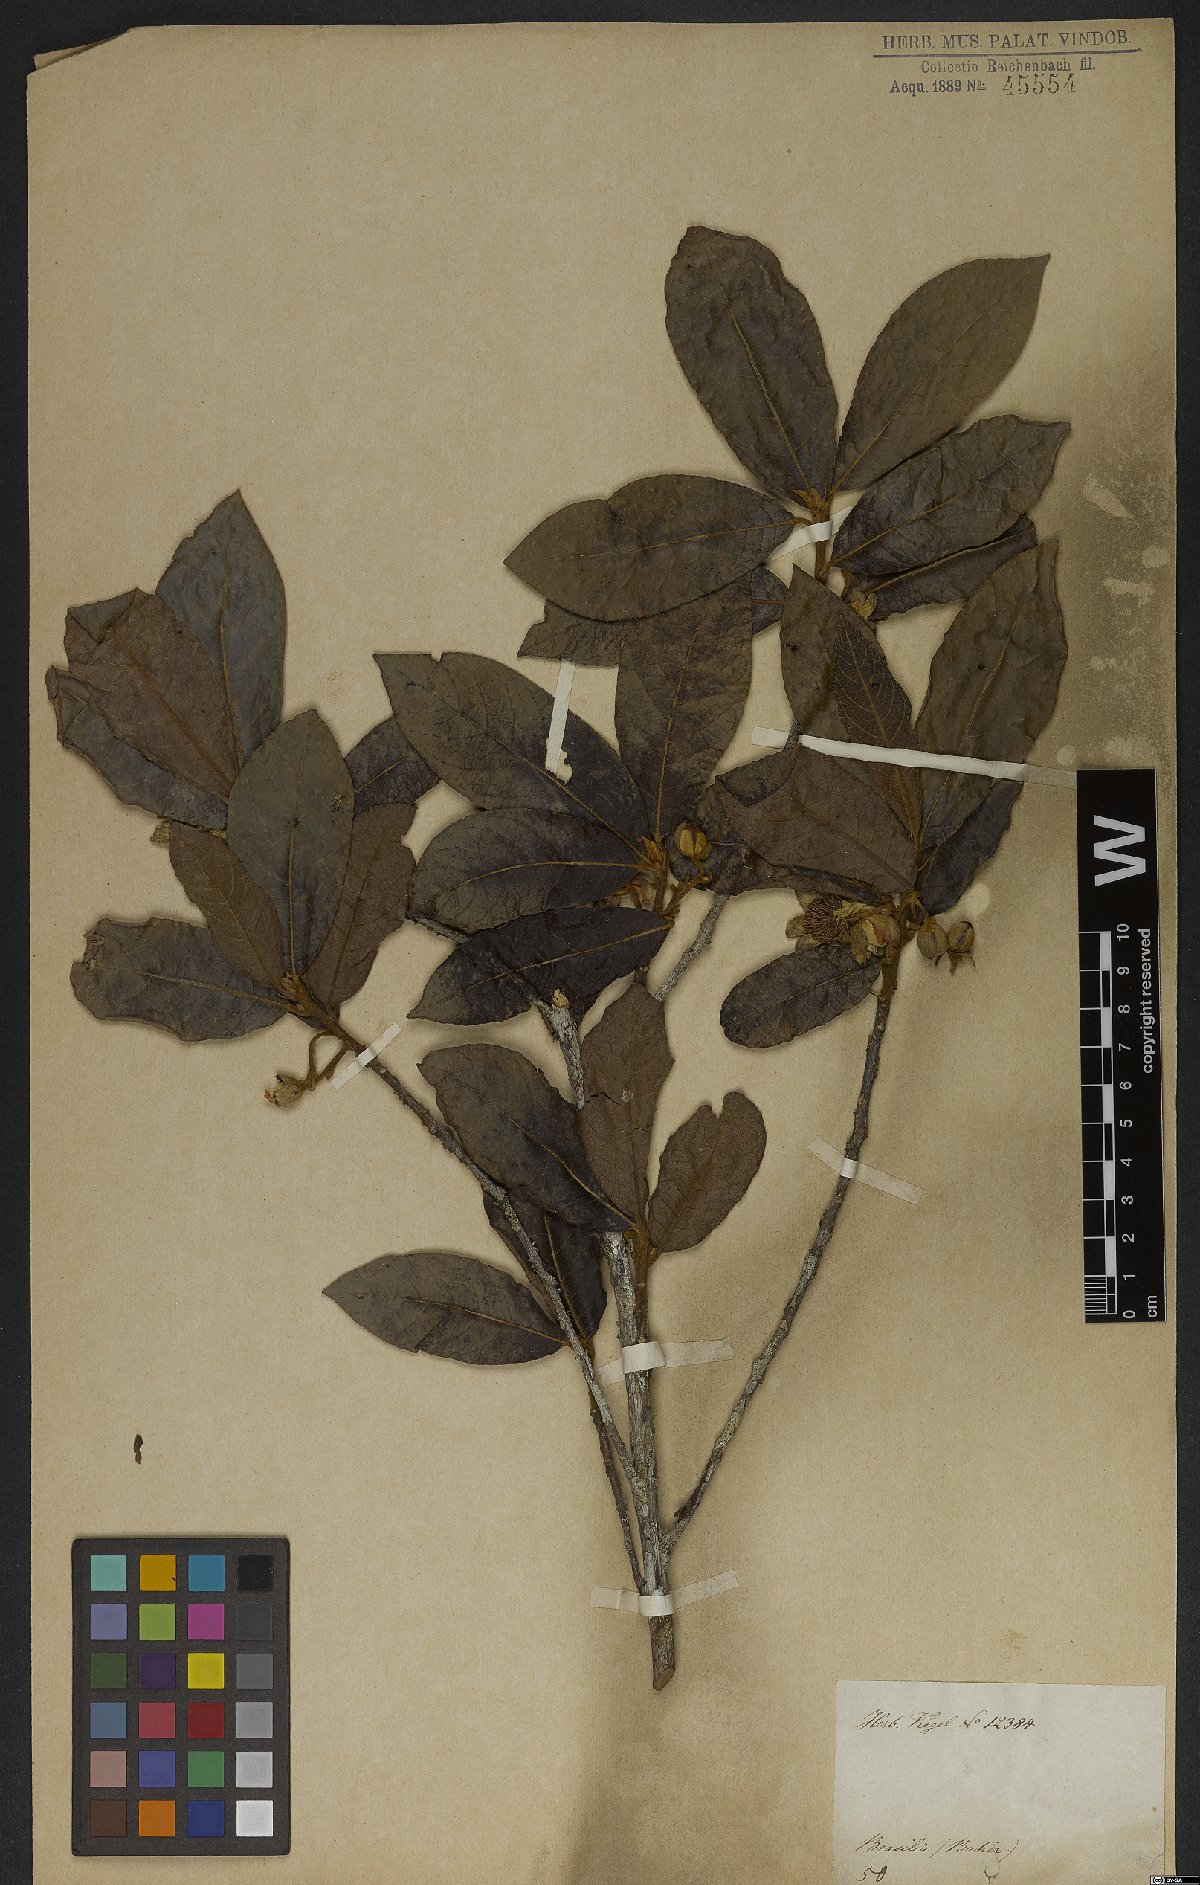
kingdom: Plantae
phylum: Tracheophyta
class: Magnoliopsida
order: Malpighiales
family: Achariaceae
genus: Carpotroche
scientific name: Carpotroche brasiliensis
